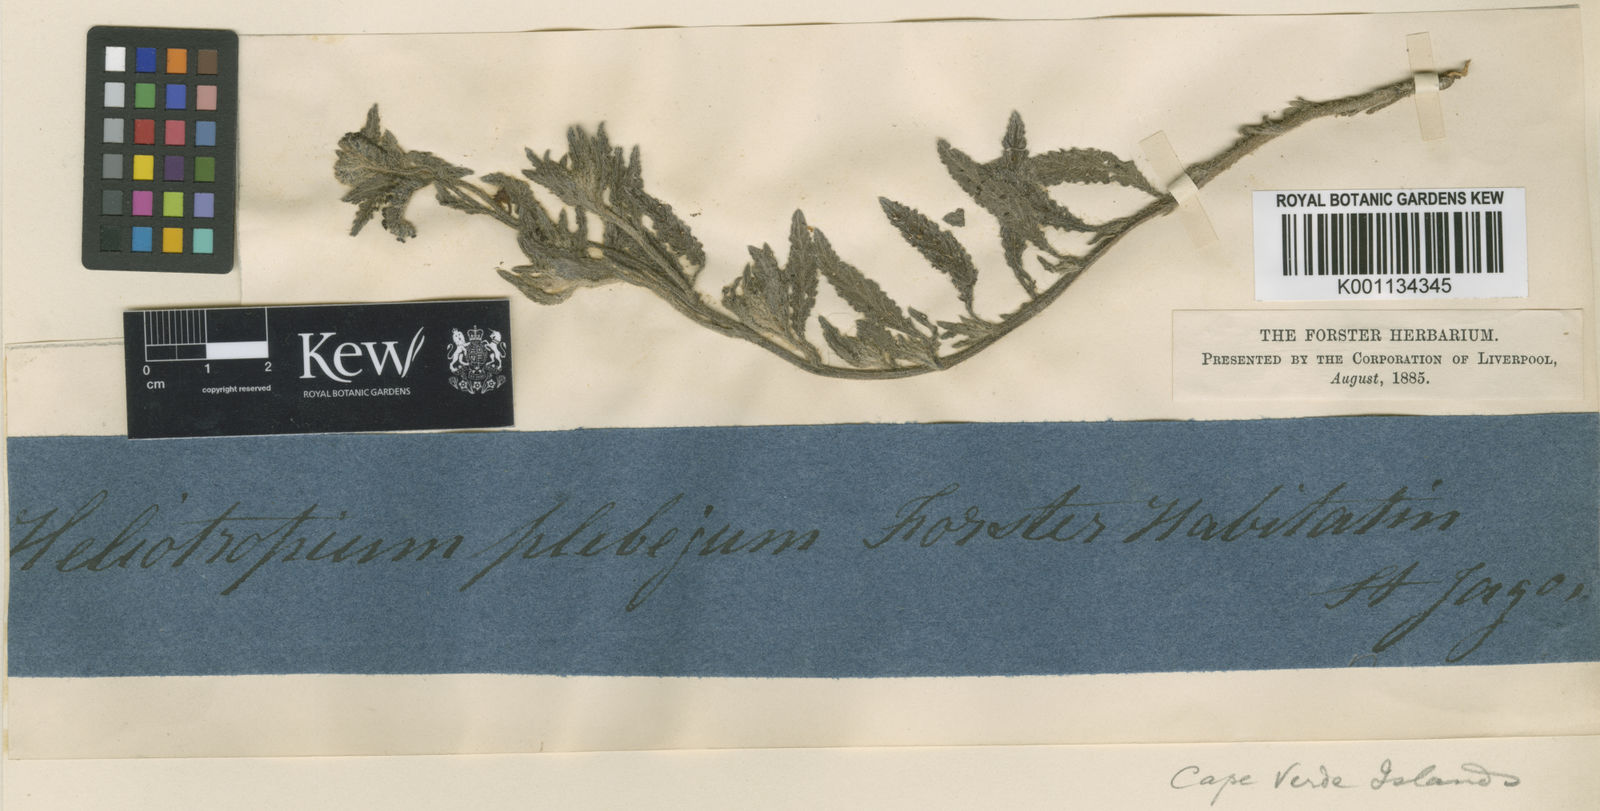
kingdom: Plantae
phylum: Tracheophyta
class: Magnoliopsida
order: Boraginales
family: Heliotropiaceae
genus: Heliotropium
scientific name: Heliotropium
